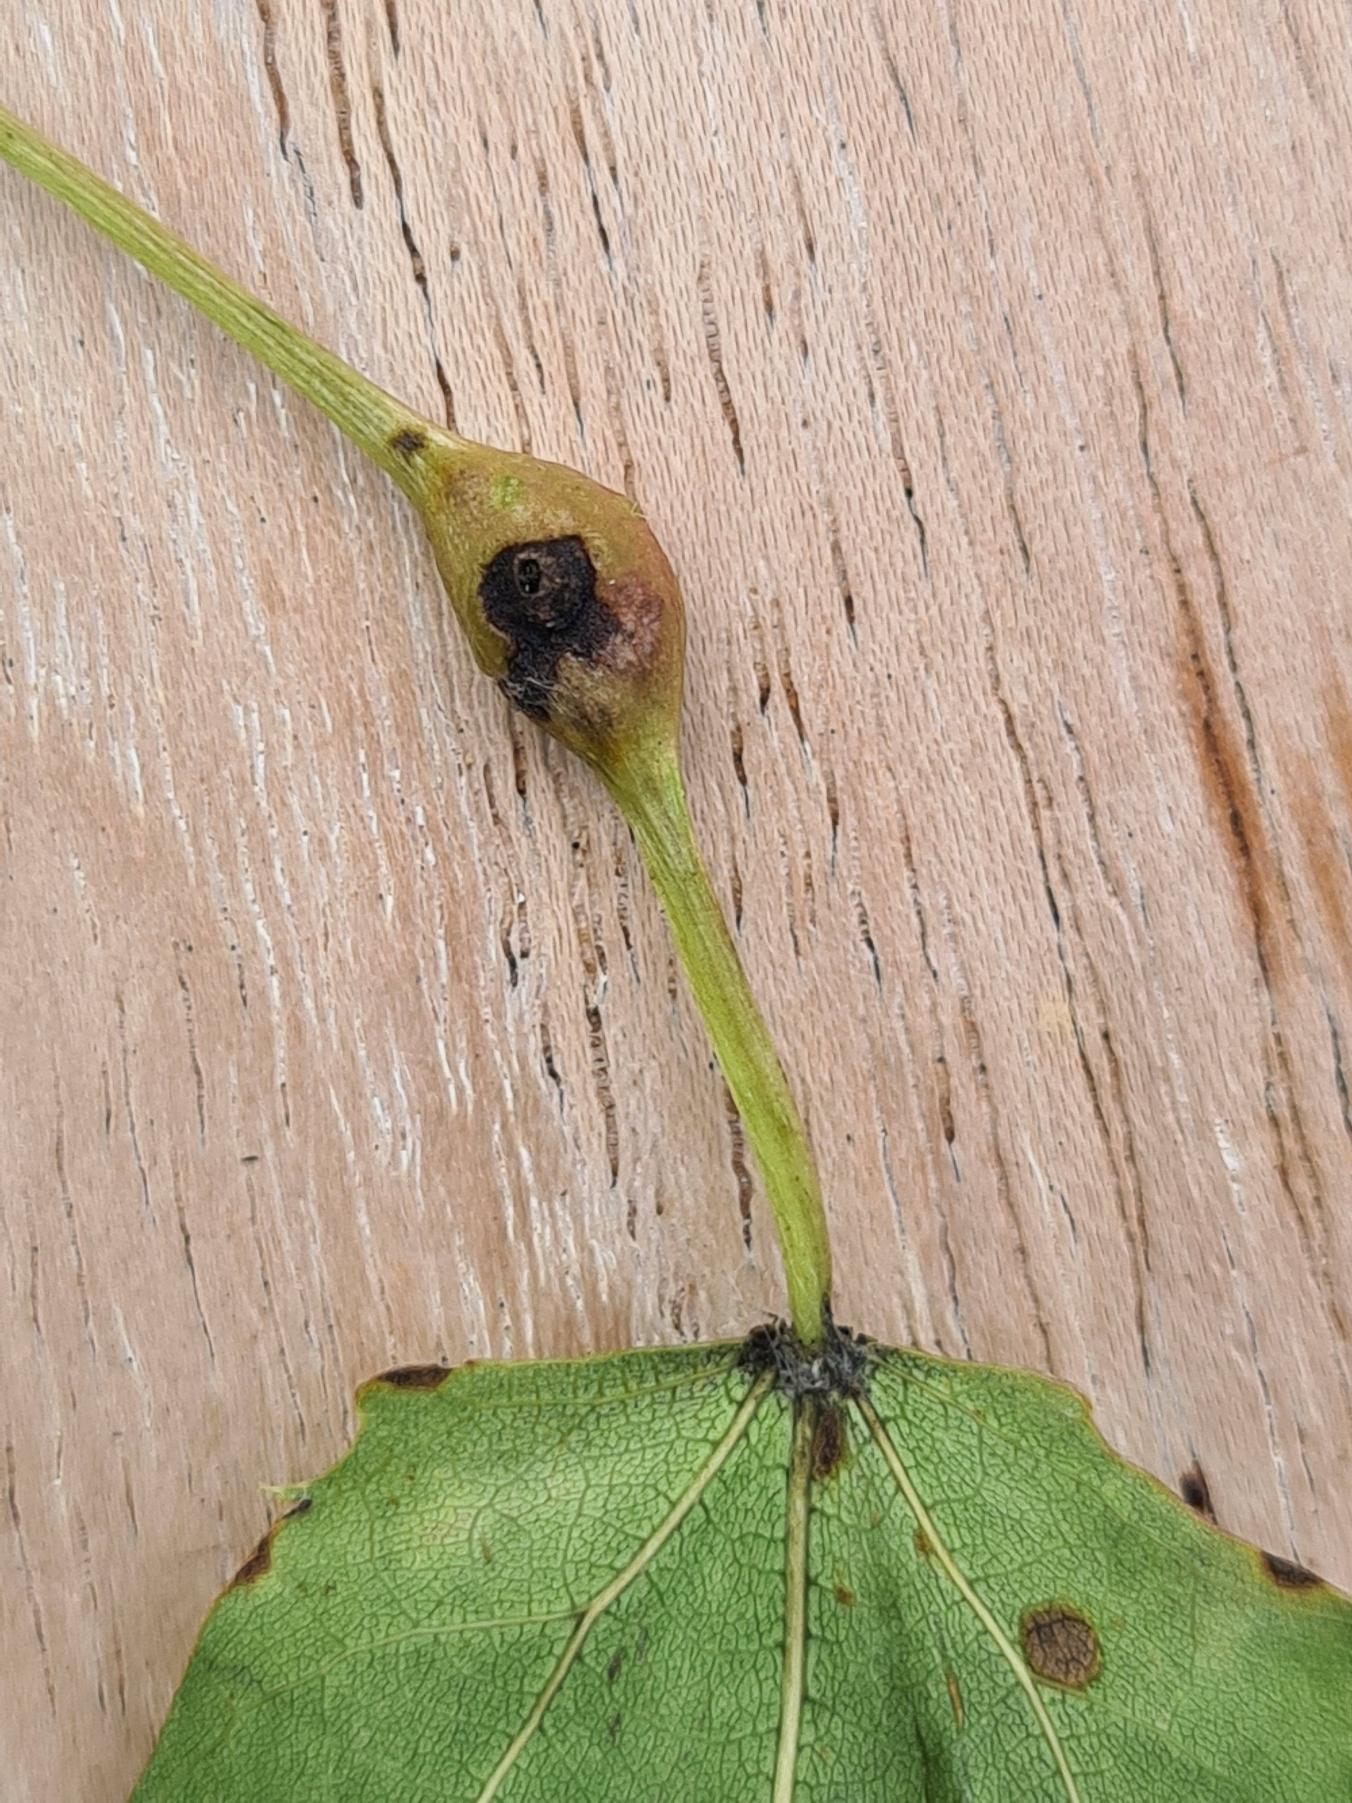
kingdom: Animalia
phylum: Arthropoda
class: Insecta
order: Diptera
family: Cecidomyiidae
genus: Contarinia
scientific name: Contarinia petioli
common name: Aspestilkgalmyg
